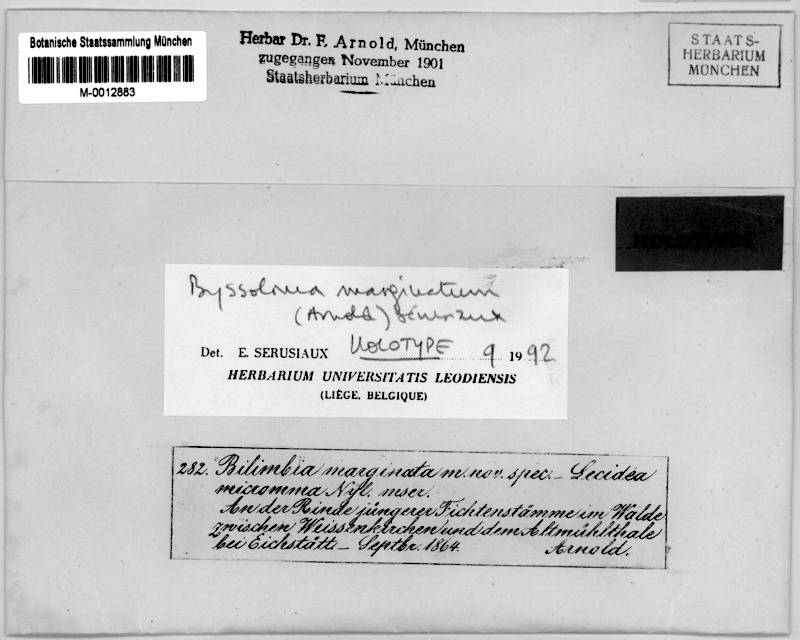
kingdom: Fungi
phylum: Ascomycota
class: Lecanoromycetes
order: Lecanorales
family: Byssolomataceae
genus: Byssoloma
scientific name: Byssoloma marginatum
